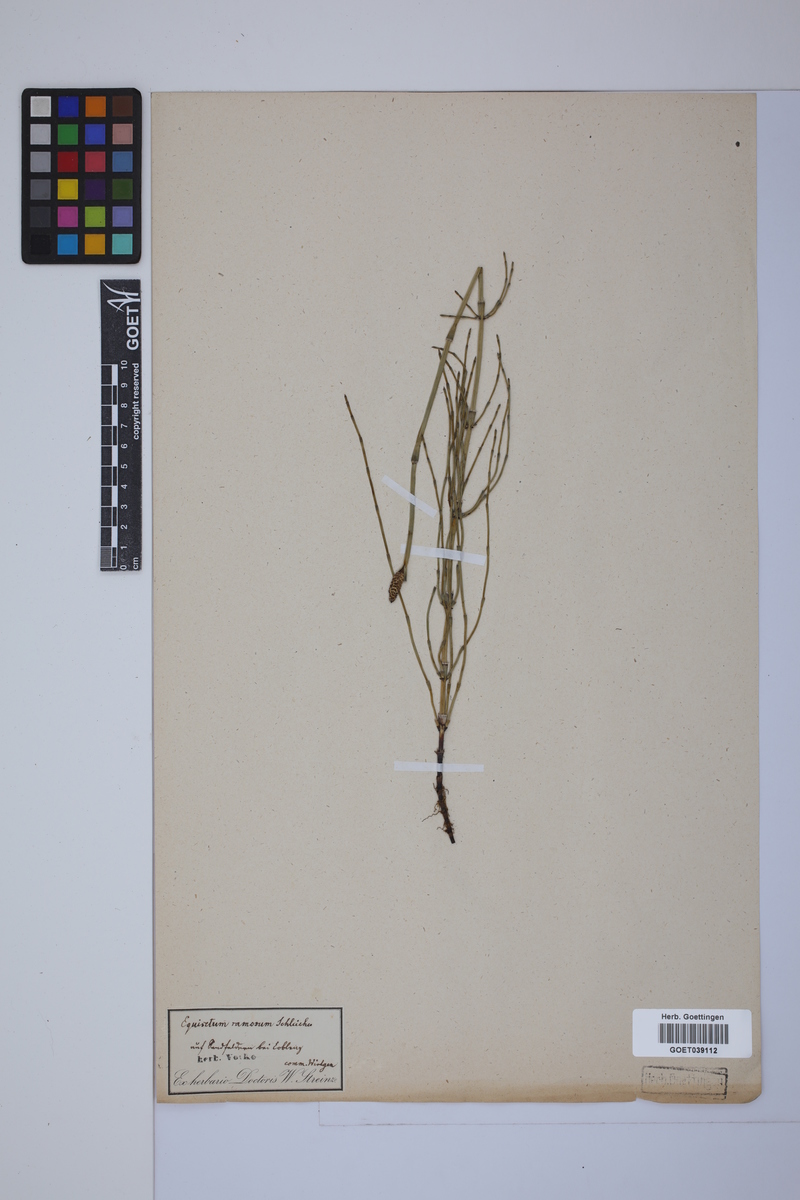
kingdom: Plantae
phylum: Tracheophyta
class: Polypodiopsida
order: Equisetales
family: Equisetaceae
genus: Equisetum
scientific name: Equisetum giganteum
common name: Giant horsetail
